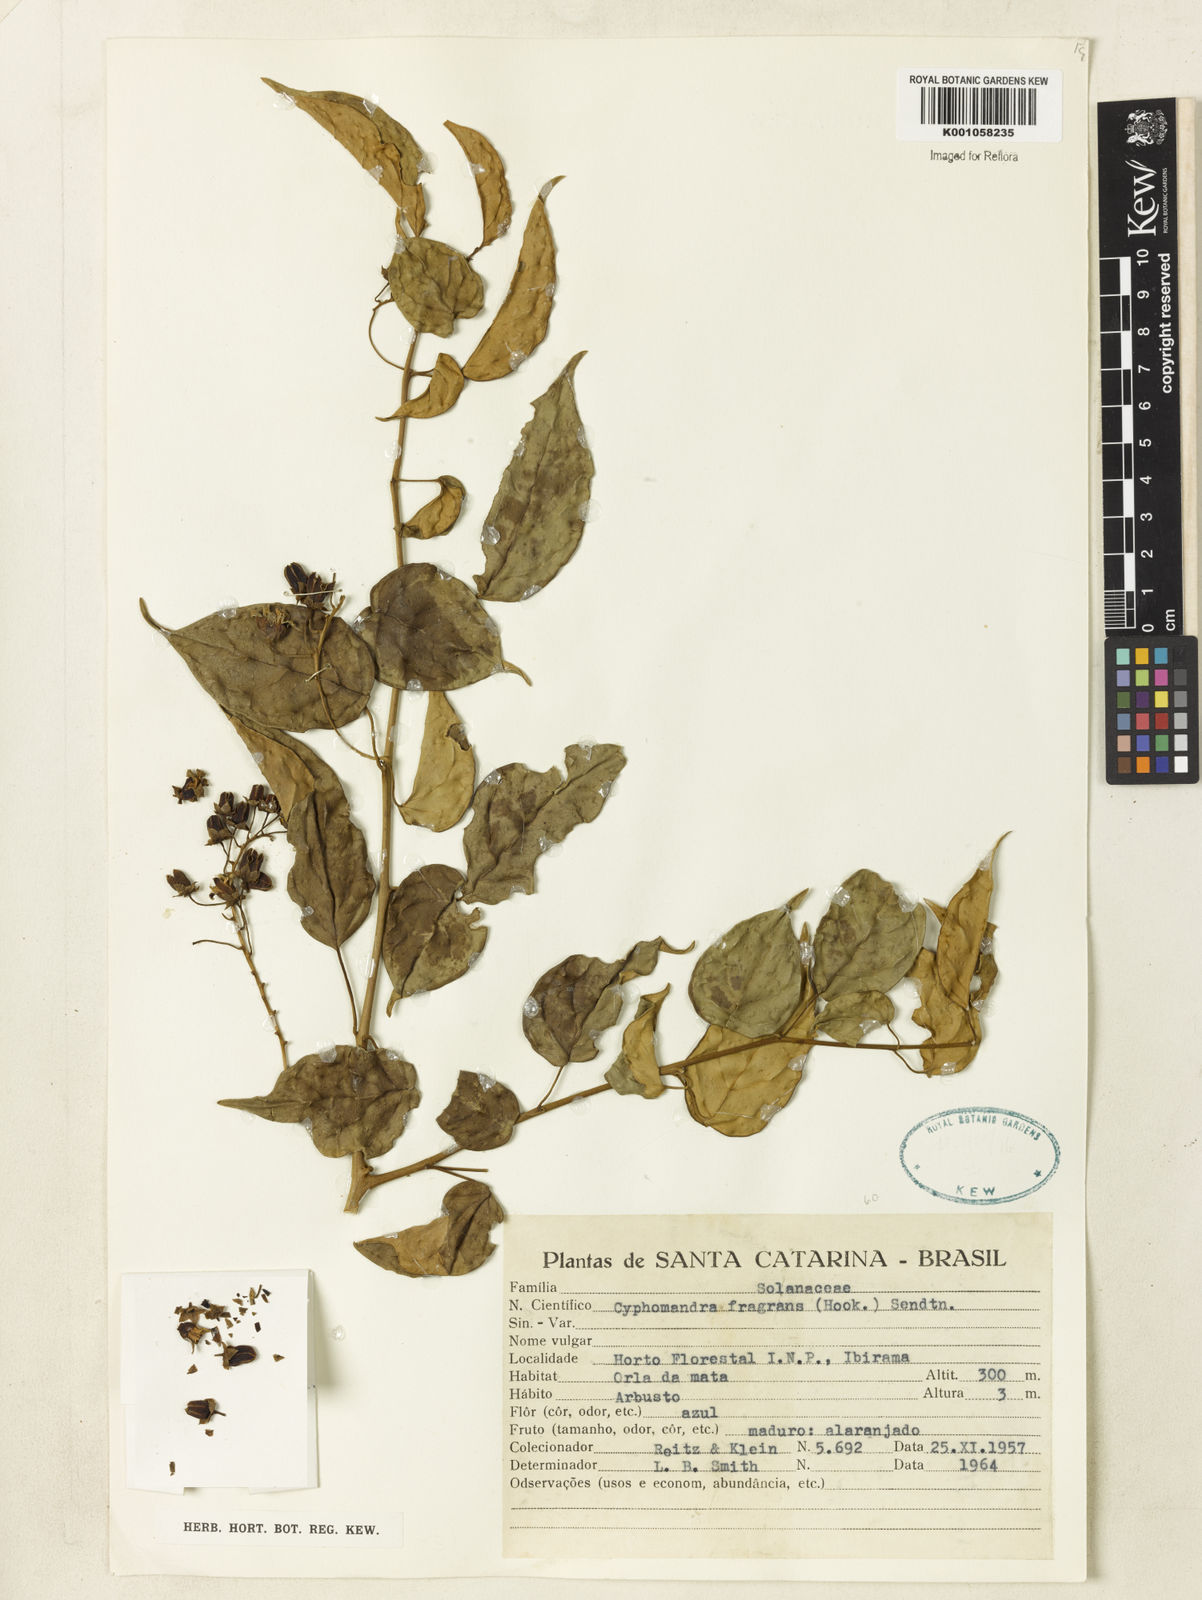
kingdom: Plantae
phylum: Tracheophyta
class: Magnoliopsida
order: Gentianales
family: Apocynaceae
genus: Prestonia
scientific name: Prestonia tomentosa
